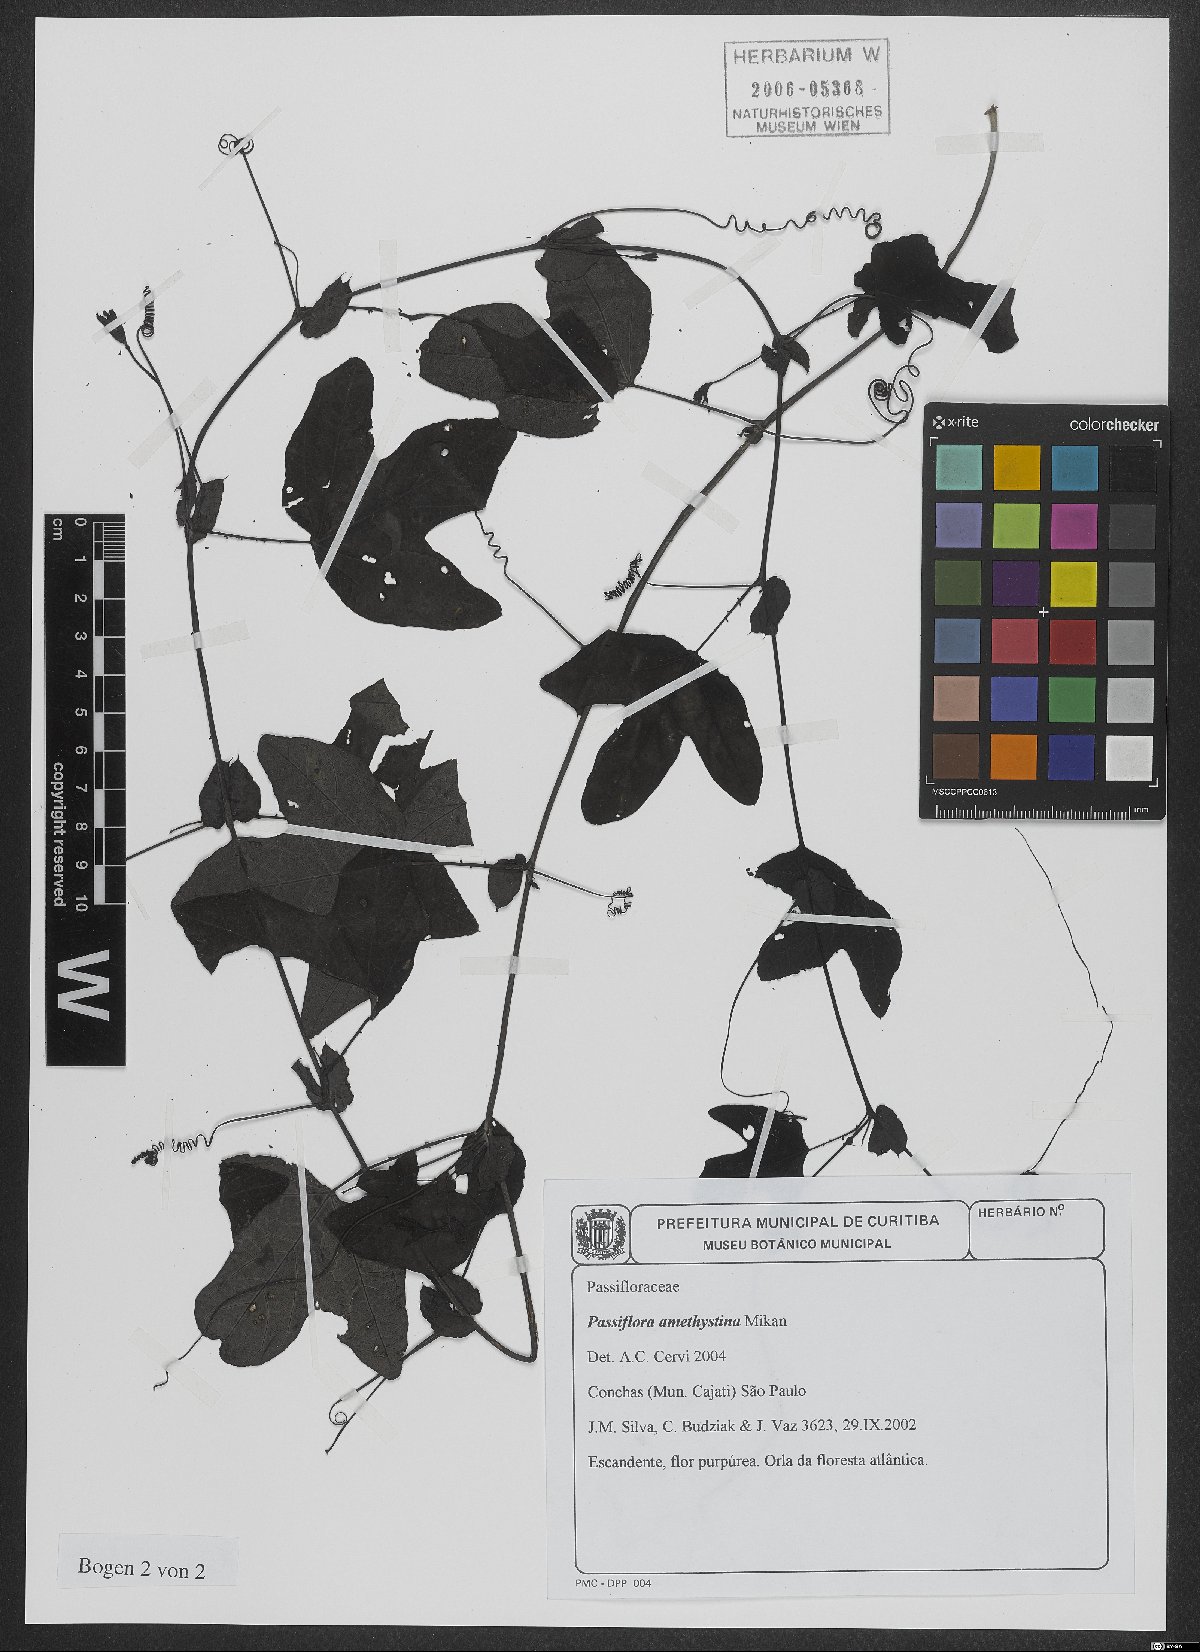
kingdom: Plantae
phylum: Tracheophyta
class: Magnoliopsida
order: Malpighiales
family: Passifloraceae
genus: Passiflora
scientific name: Passiflora amethystina
